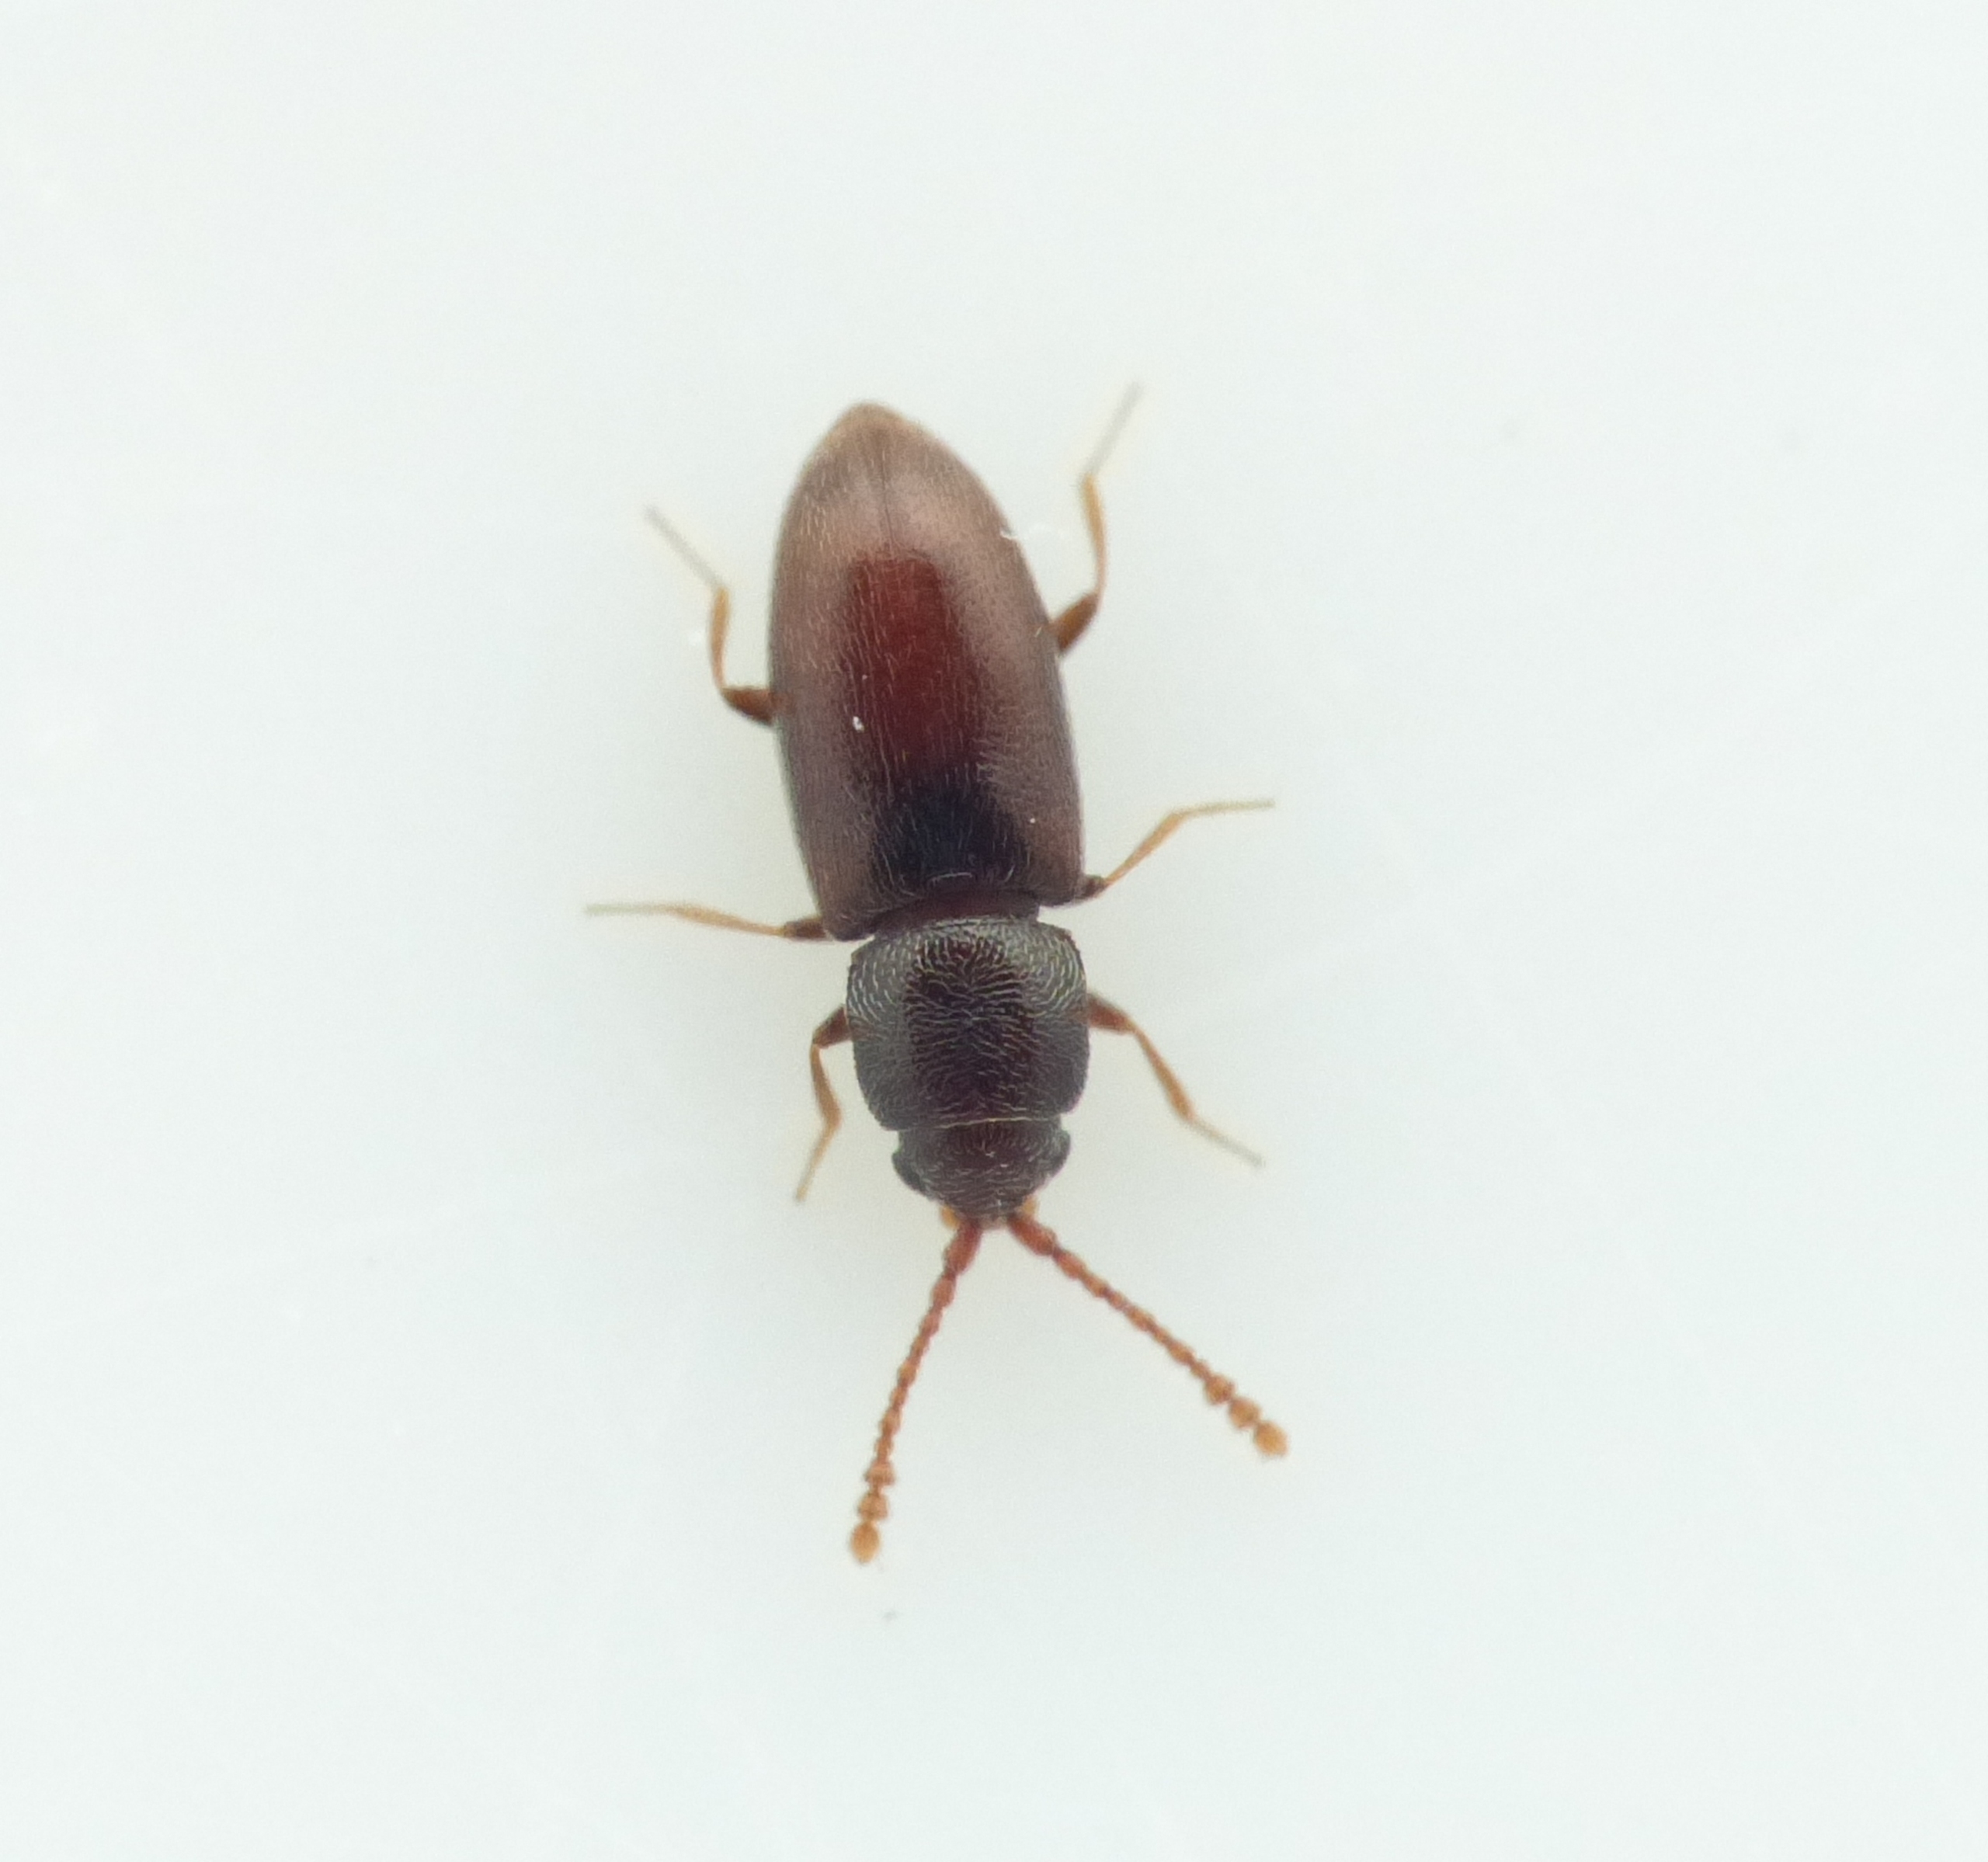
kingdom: Animalia
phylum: Arthropoda
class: Insecta
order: Coleoptera
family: Cryptophagidae
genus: Atomaria
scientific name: Atomaria linearis
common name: Runkelroebille
